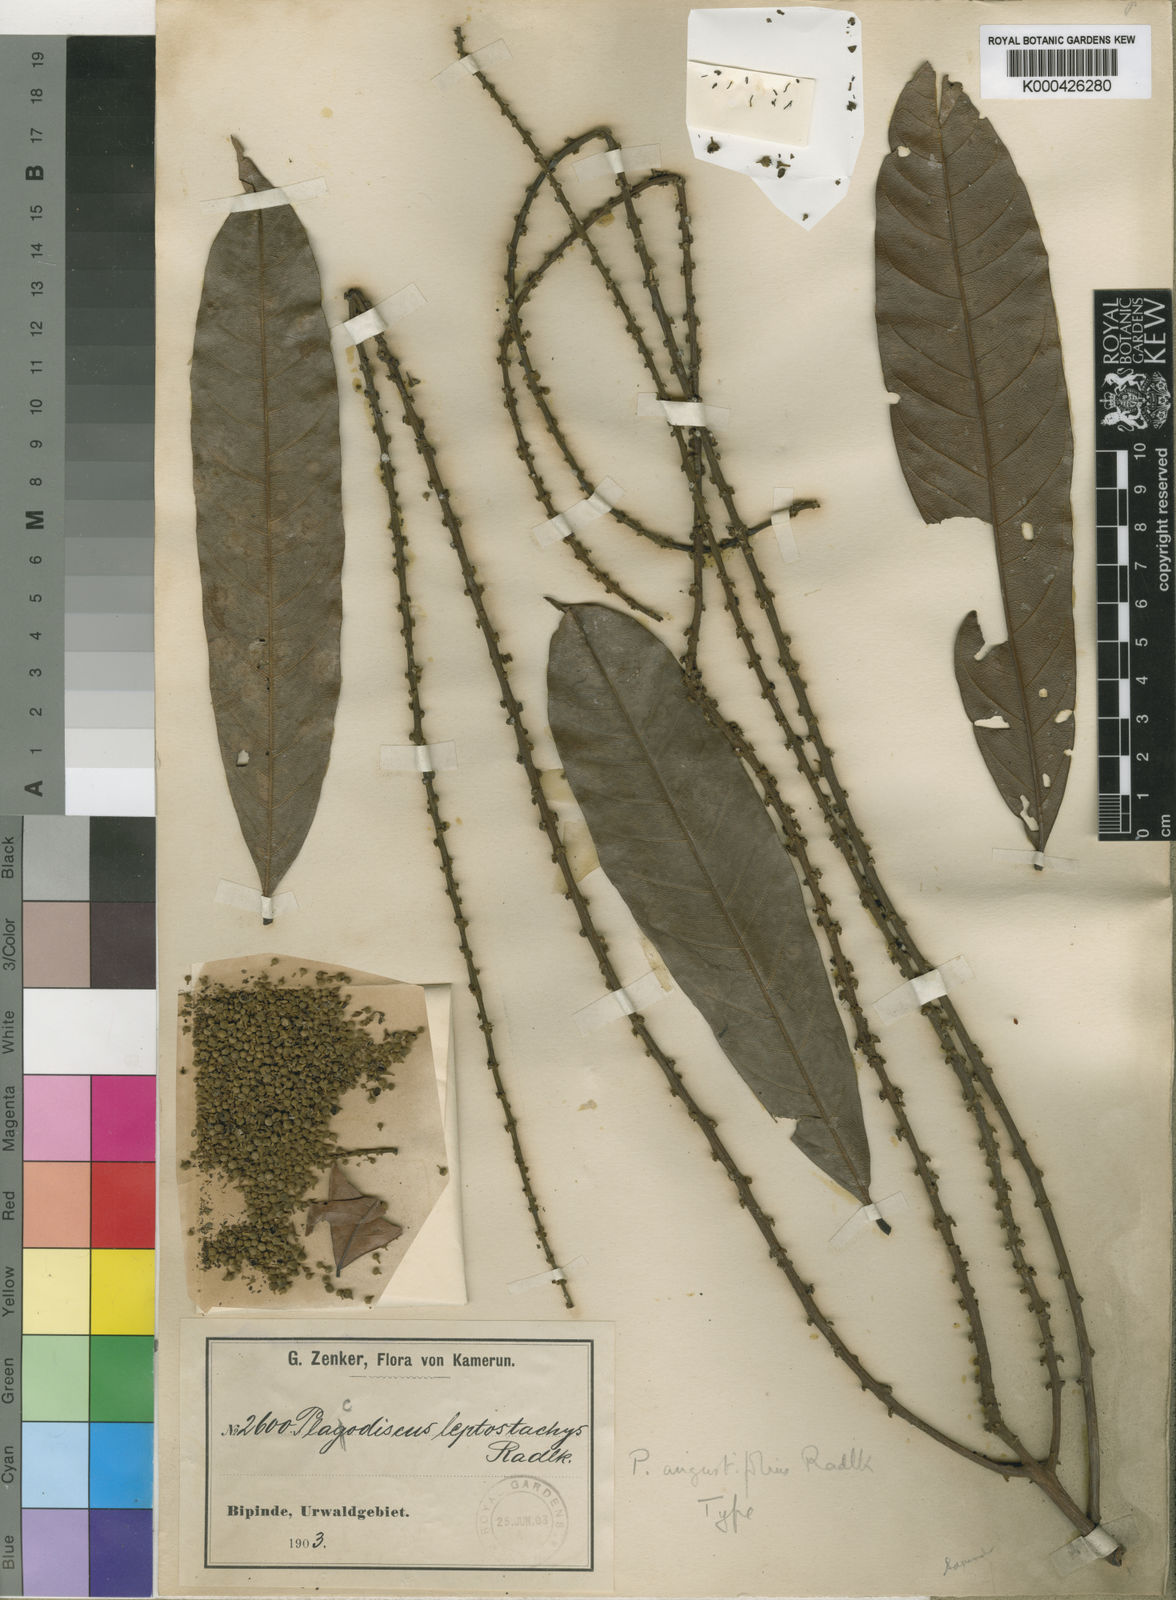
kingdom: Plantae
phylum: Tracheophyta
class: Magnoliopsida
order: Sapindales
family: Sapindaceae
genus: Placodiscus
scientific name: Placodiscus angustifolius
